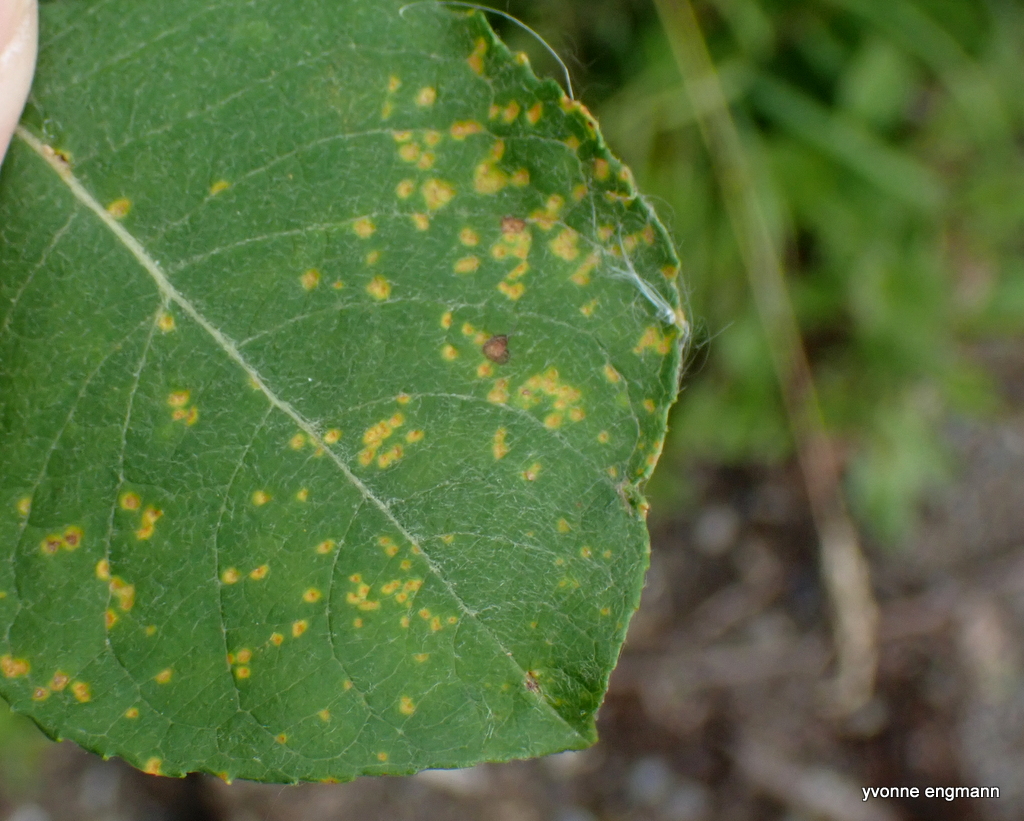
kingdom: Fungi
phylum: Basidiomycota
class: Pucciniomycetes
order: Pucciniales
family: Melampsoraceae
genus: Melampsora
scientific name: Melampsora epitea
